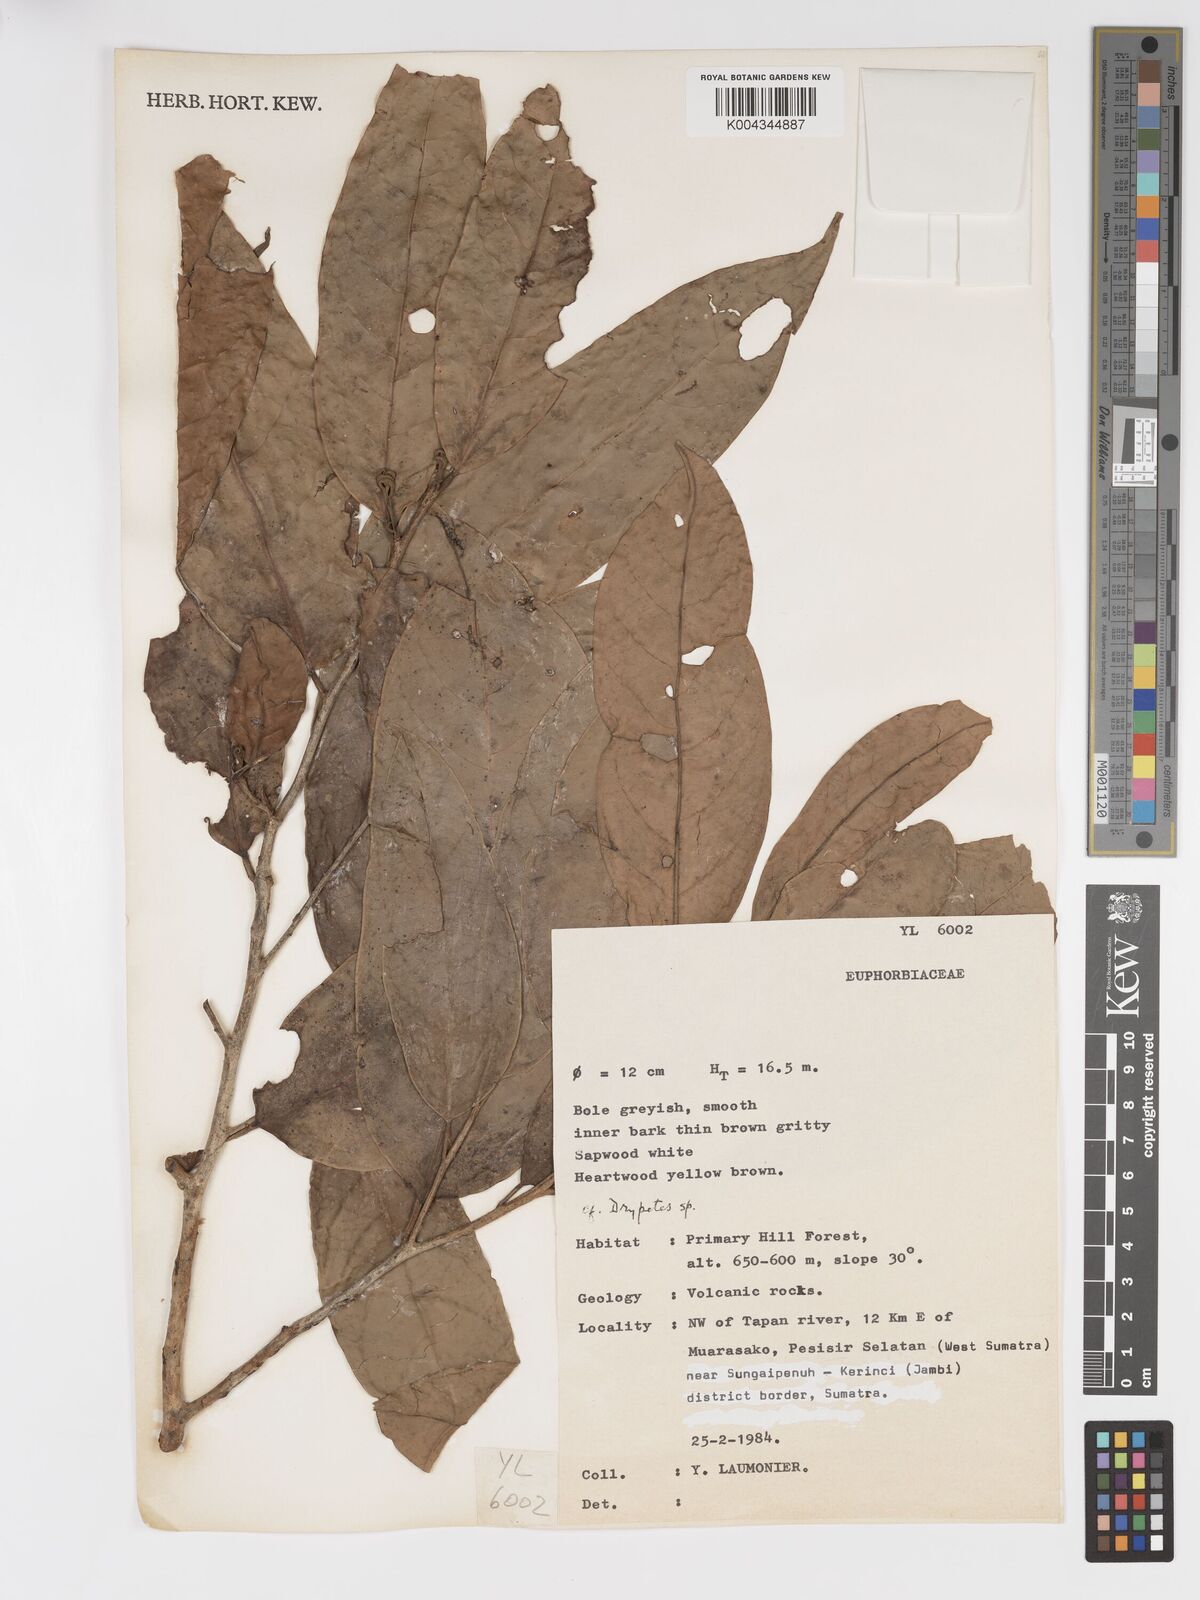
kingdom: Plantae
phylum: Tracheophyta
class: Magnoliopsida
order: Malpighiales
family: Putranjivaceae
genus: Drypetes
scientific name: Drypetes
